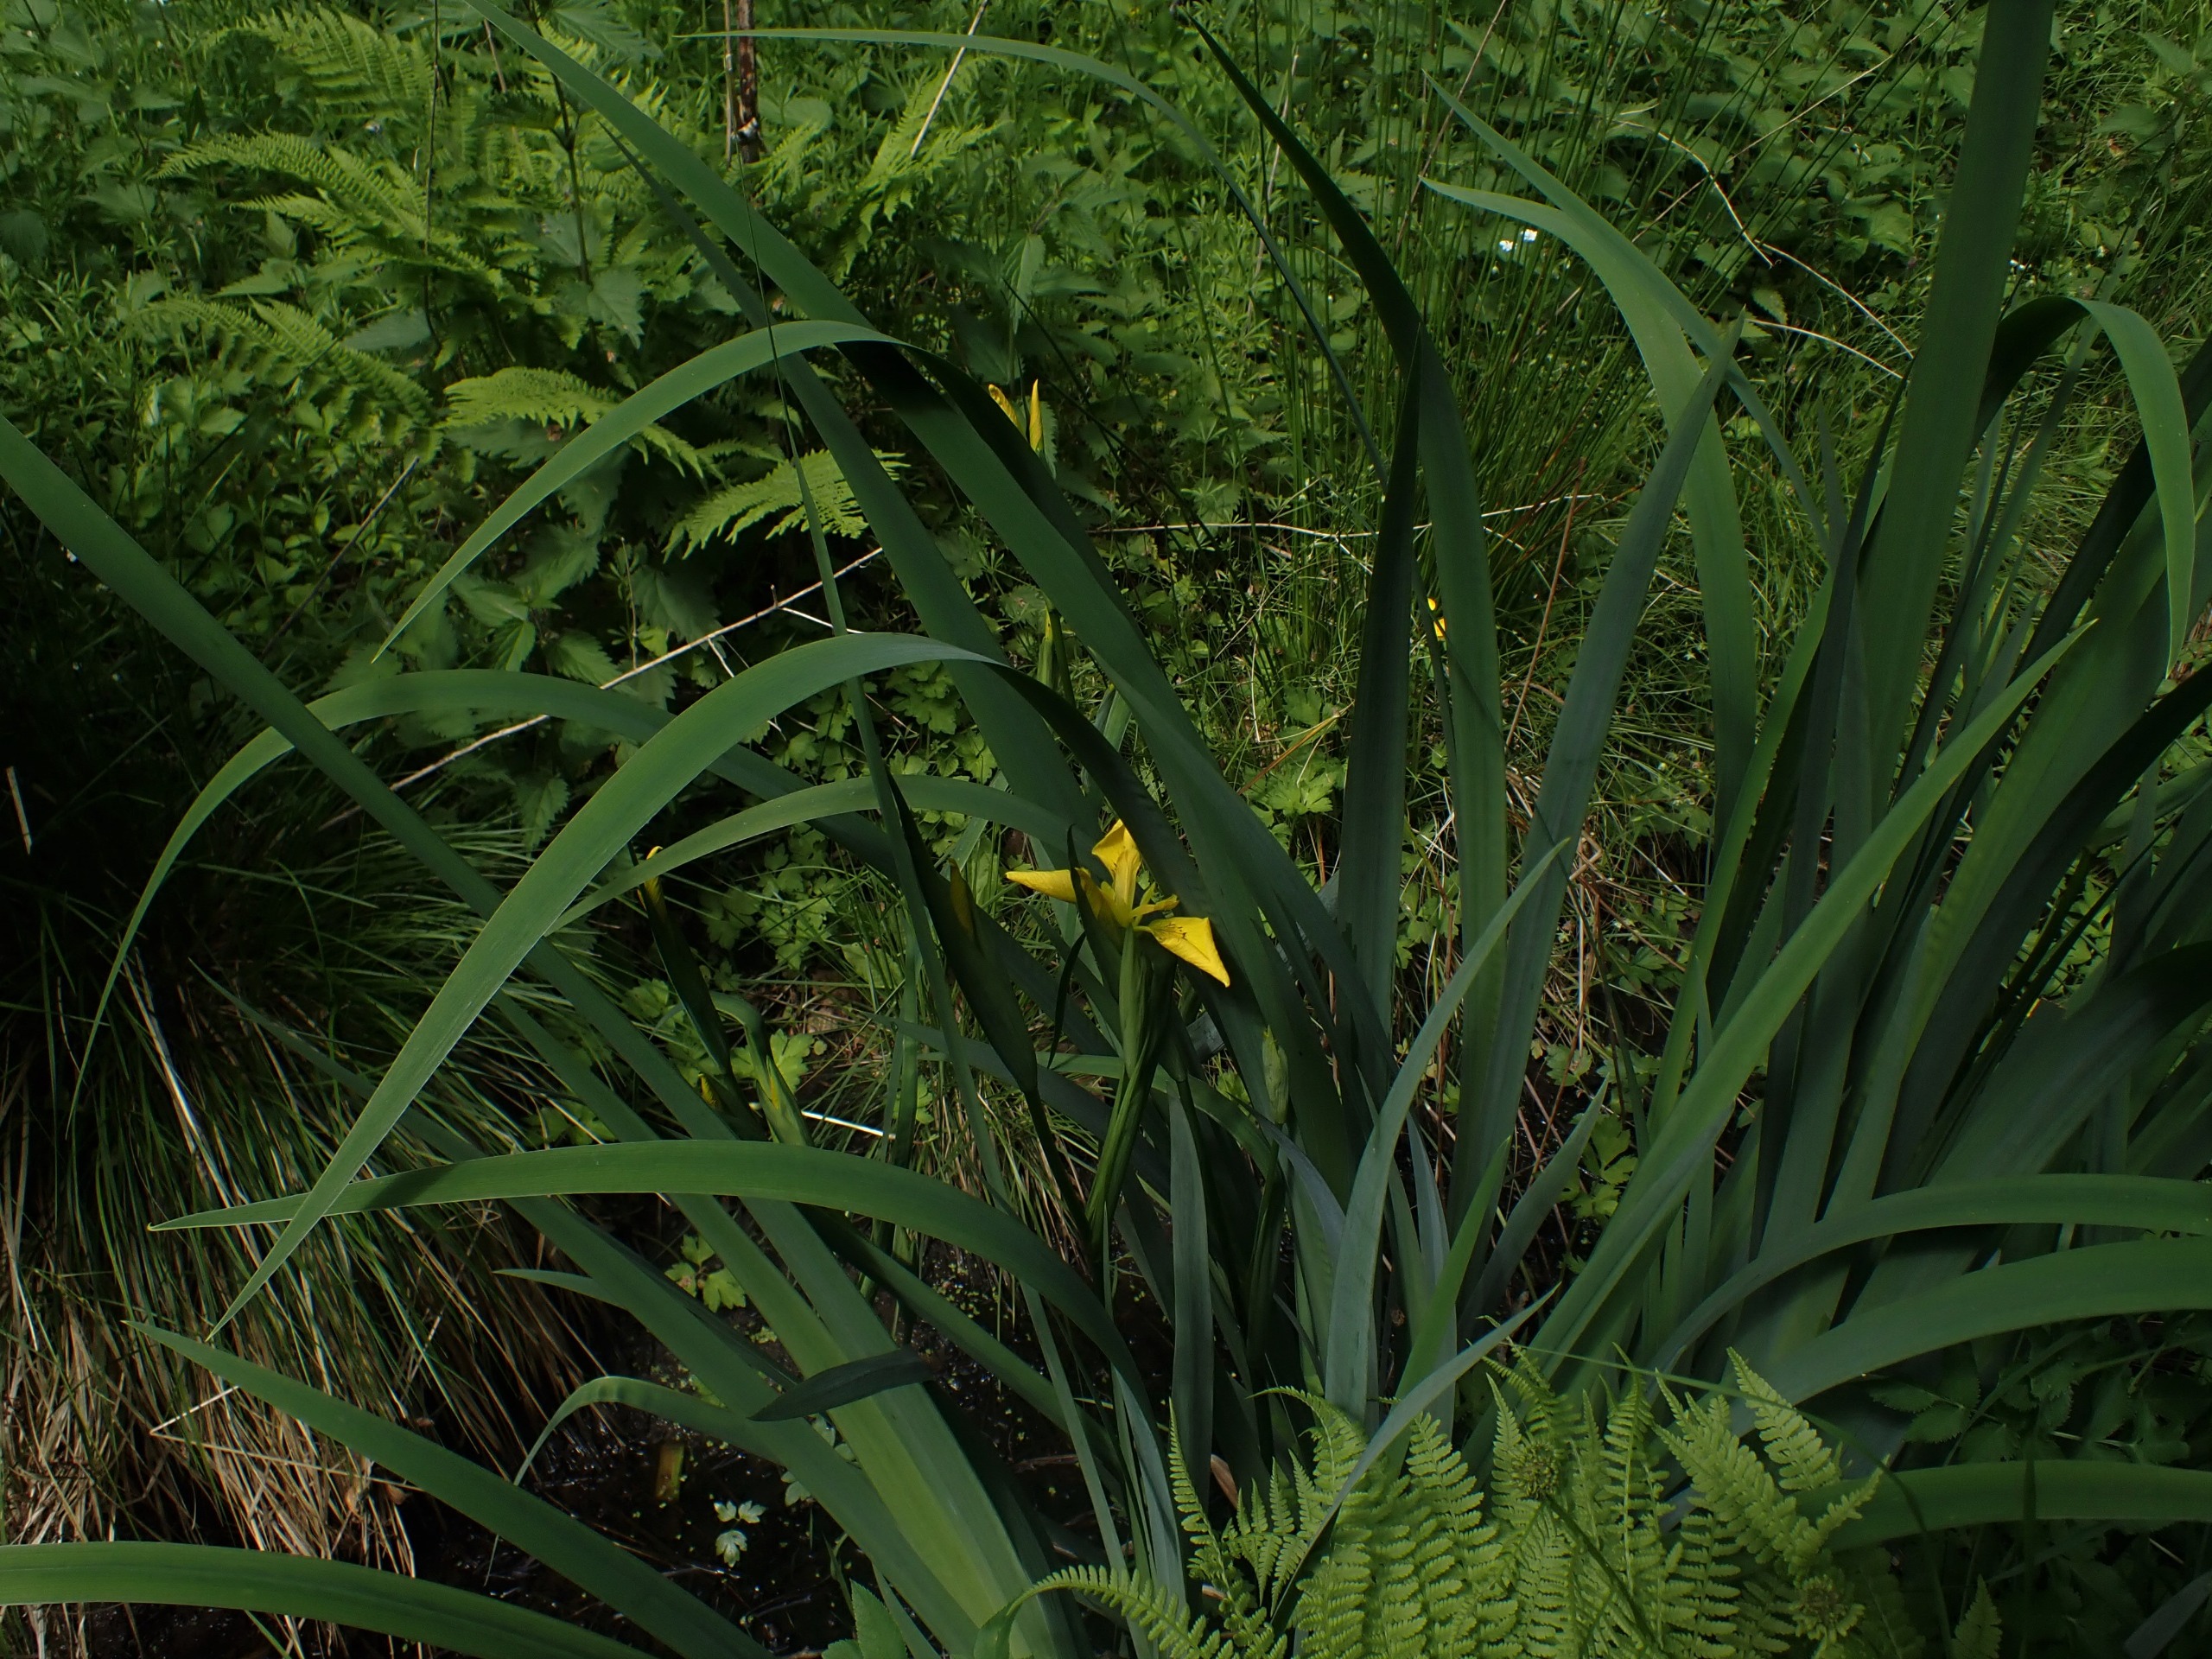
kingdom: Plantae
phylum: Tracheophyta
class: Liliopsida
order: Asparagales
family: Iridaceae
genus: Iris
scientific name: Iris pseudacorus
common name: Gul iris
